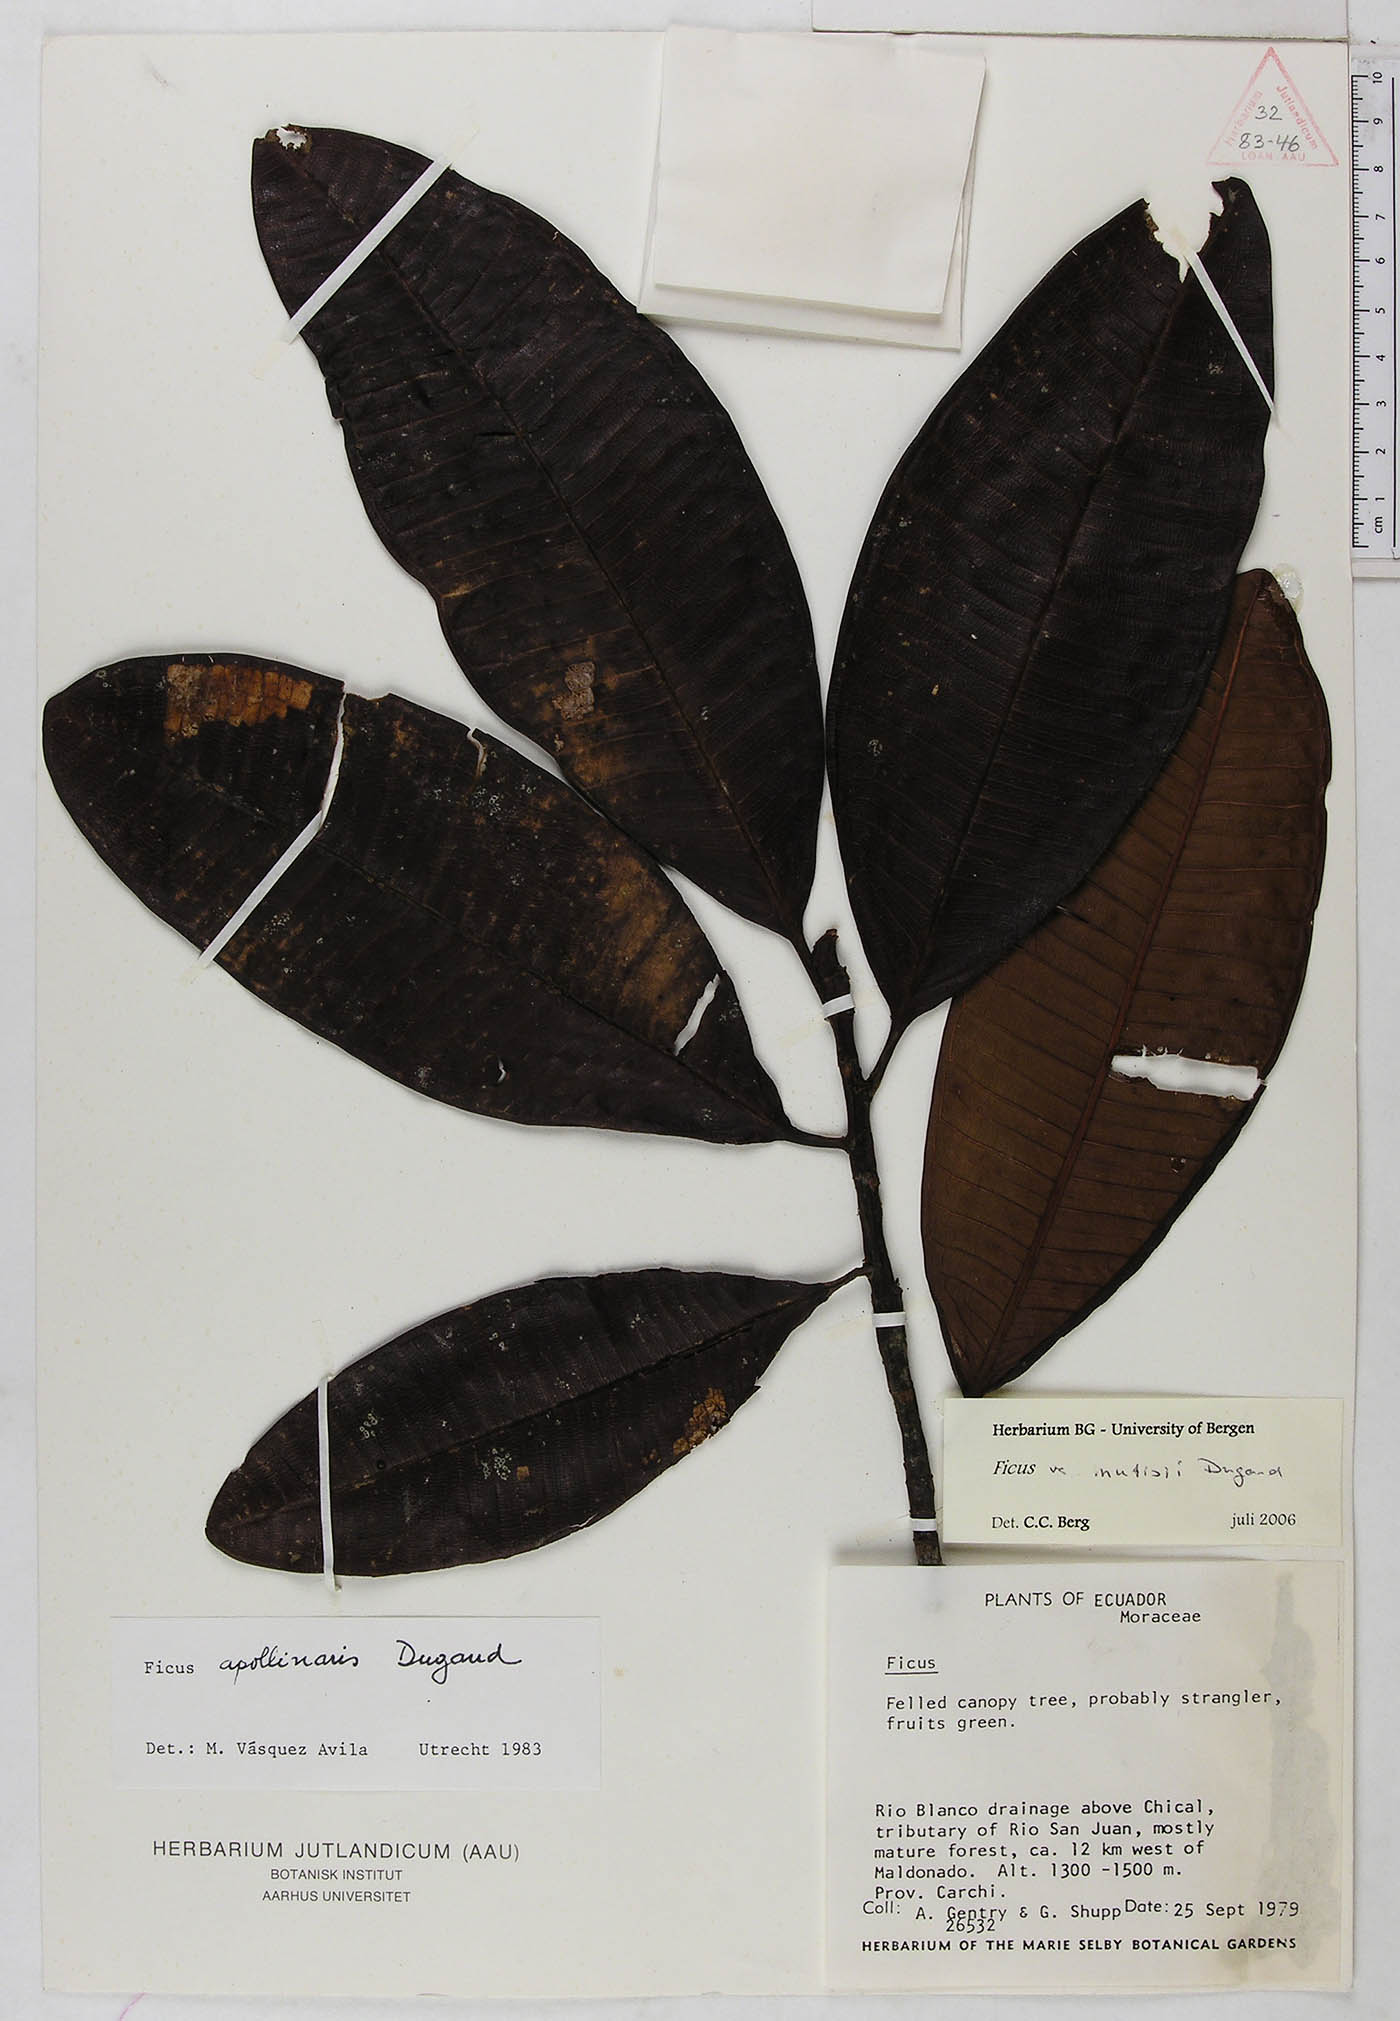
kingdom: Plantae
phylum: Tracheophyta
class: Magnoliopsida
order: Rosales
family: Moraceae
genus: Ficus
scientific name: Ficus quijosana
